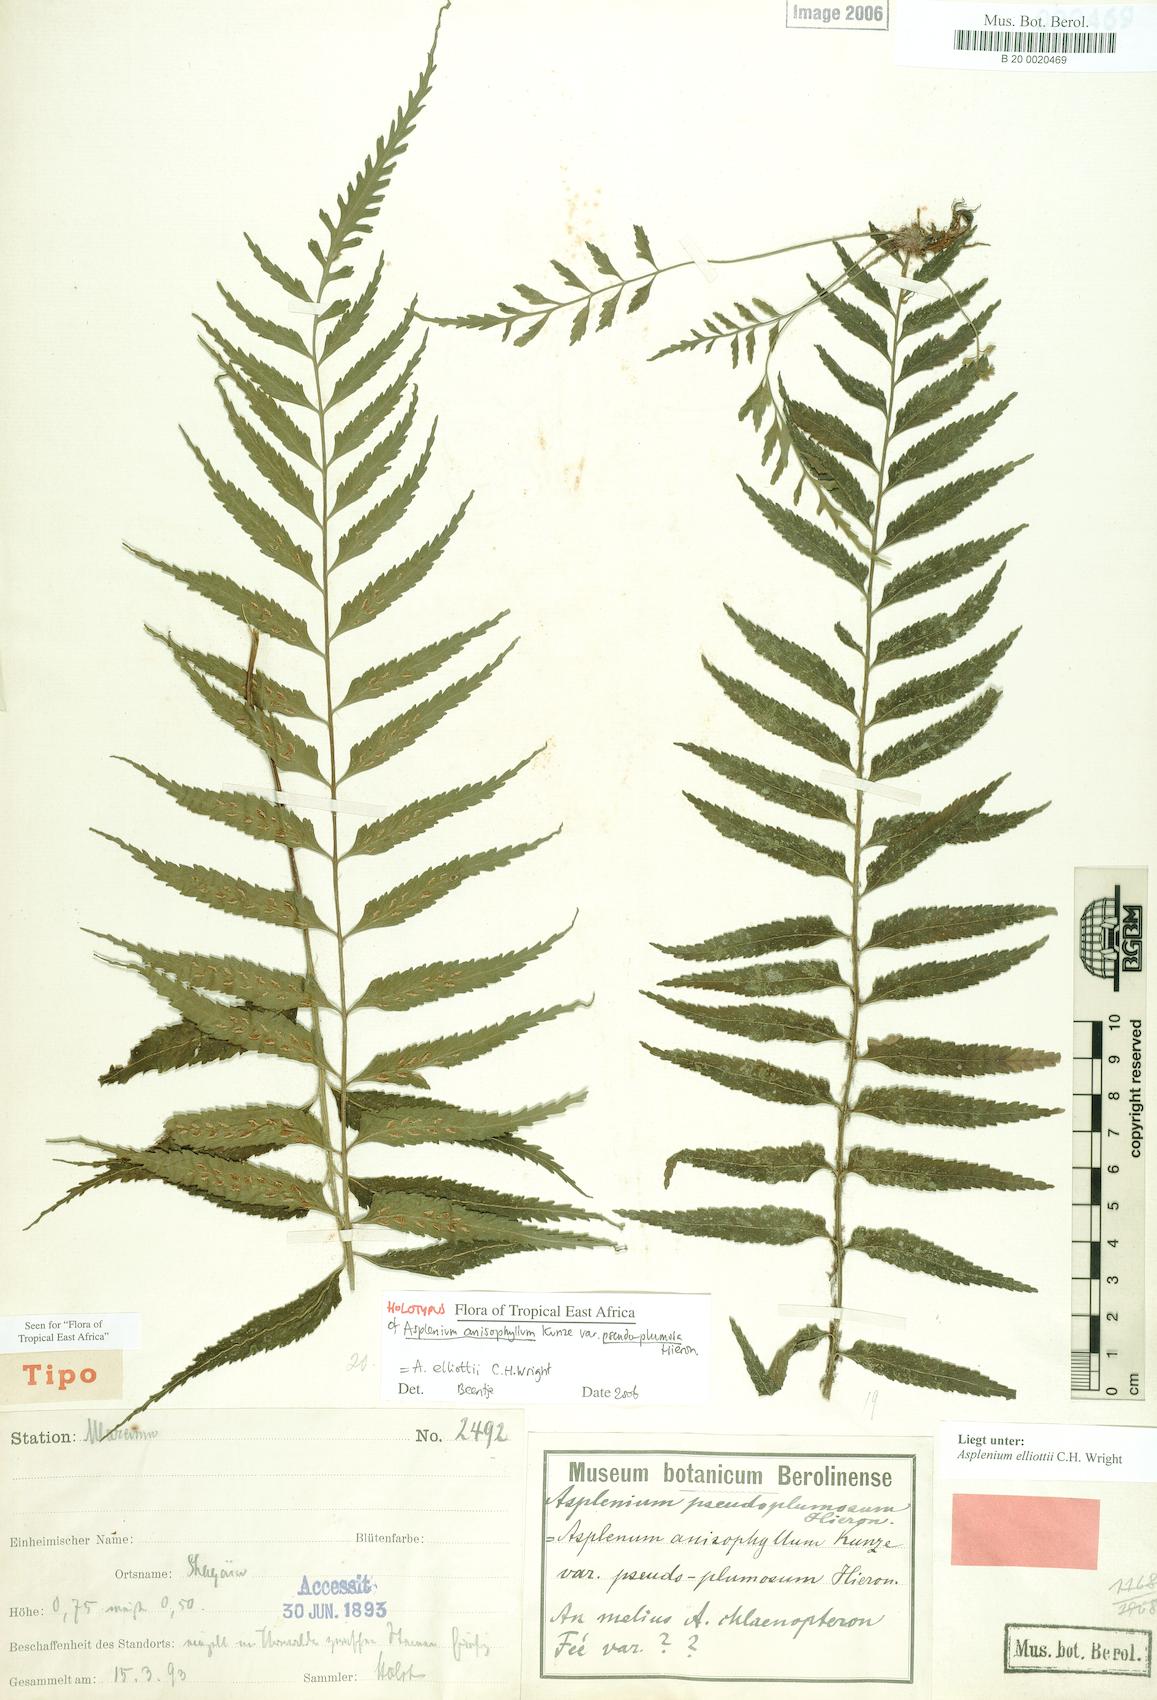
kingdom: Plantae
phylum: Tracheophyta
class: Polypodiopsida
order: Polypodiales
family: Aspleniaceae
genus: Asplenium
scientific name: Asplenium elliottii
